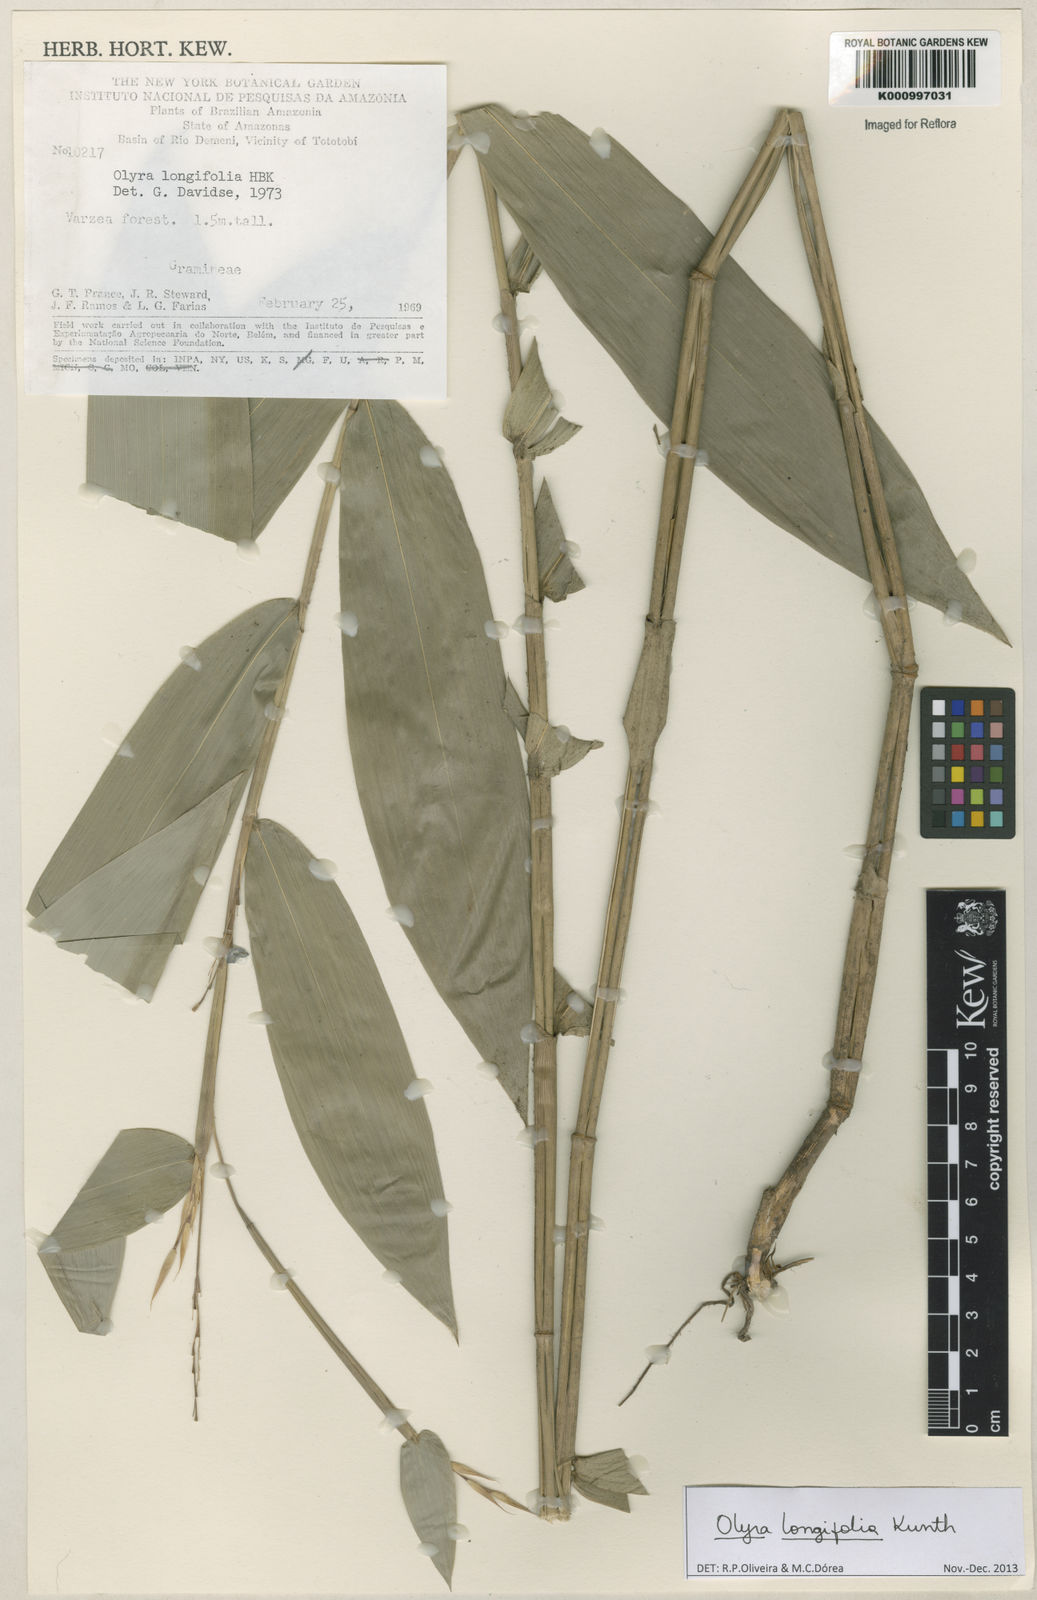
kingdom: Plantae
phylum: Tracheophyta
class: Liliopsida
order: Poales
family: Poaceae
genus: Olyra
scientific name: Olyra longifolia
